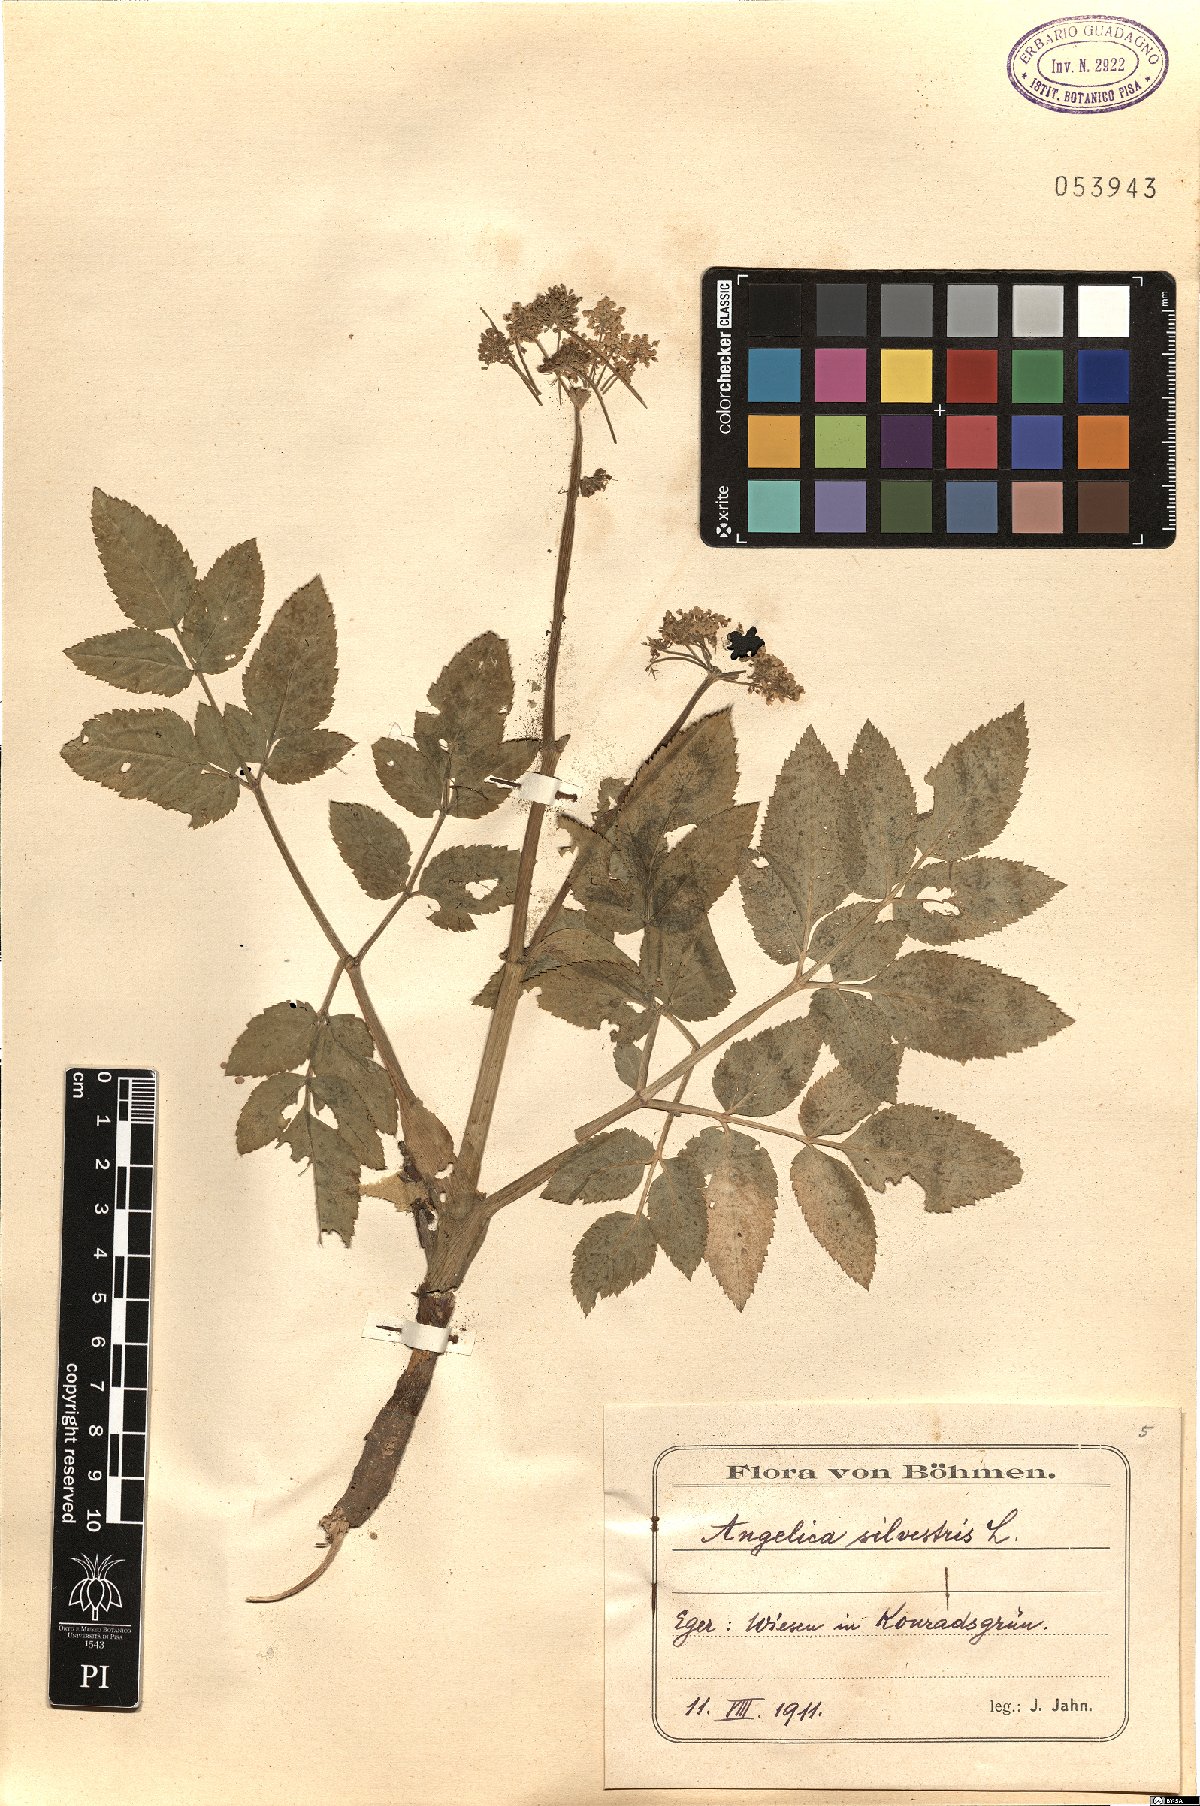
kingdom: Plantae
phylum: Tracheophyta
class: Magnoliopsida
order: Apiales
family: Apiaceae
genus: Angelica
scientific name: Angelica sylvestris
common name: Wild angelica
